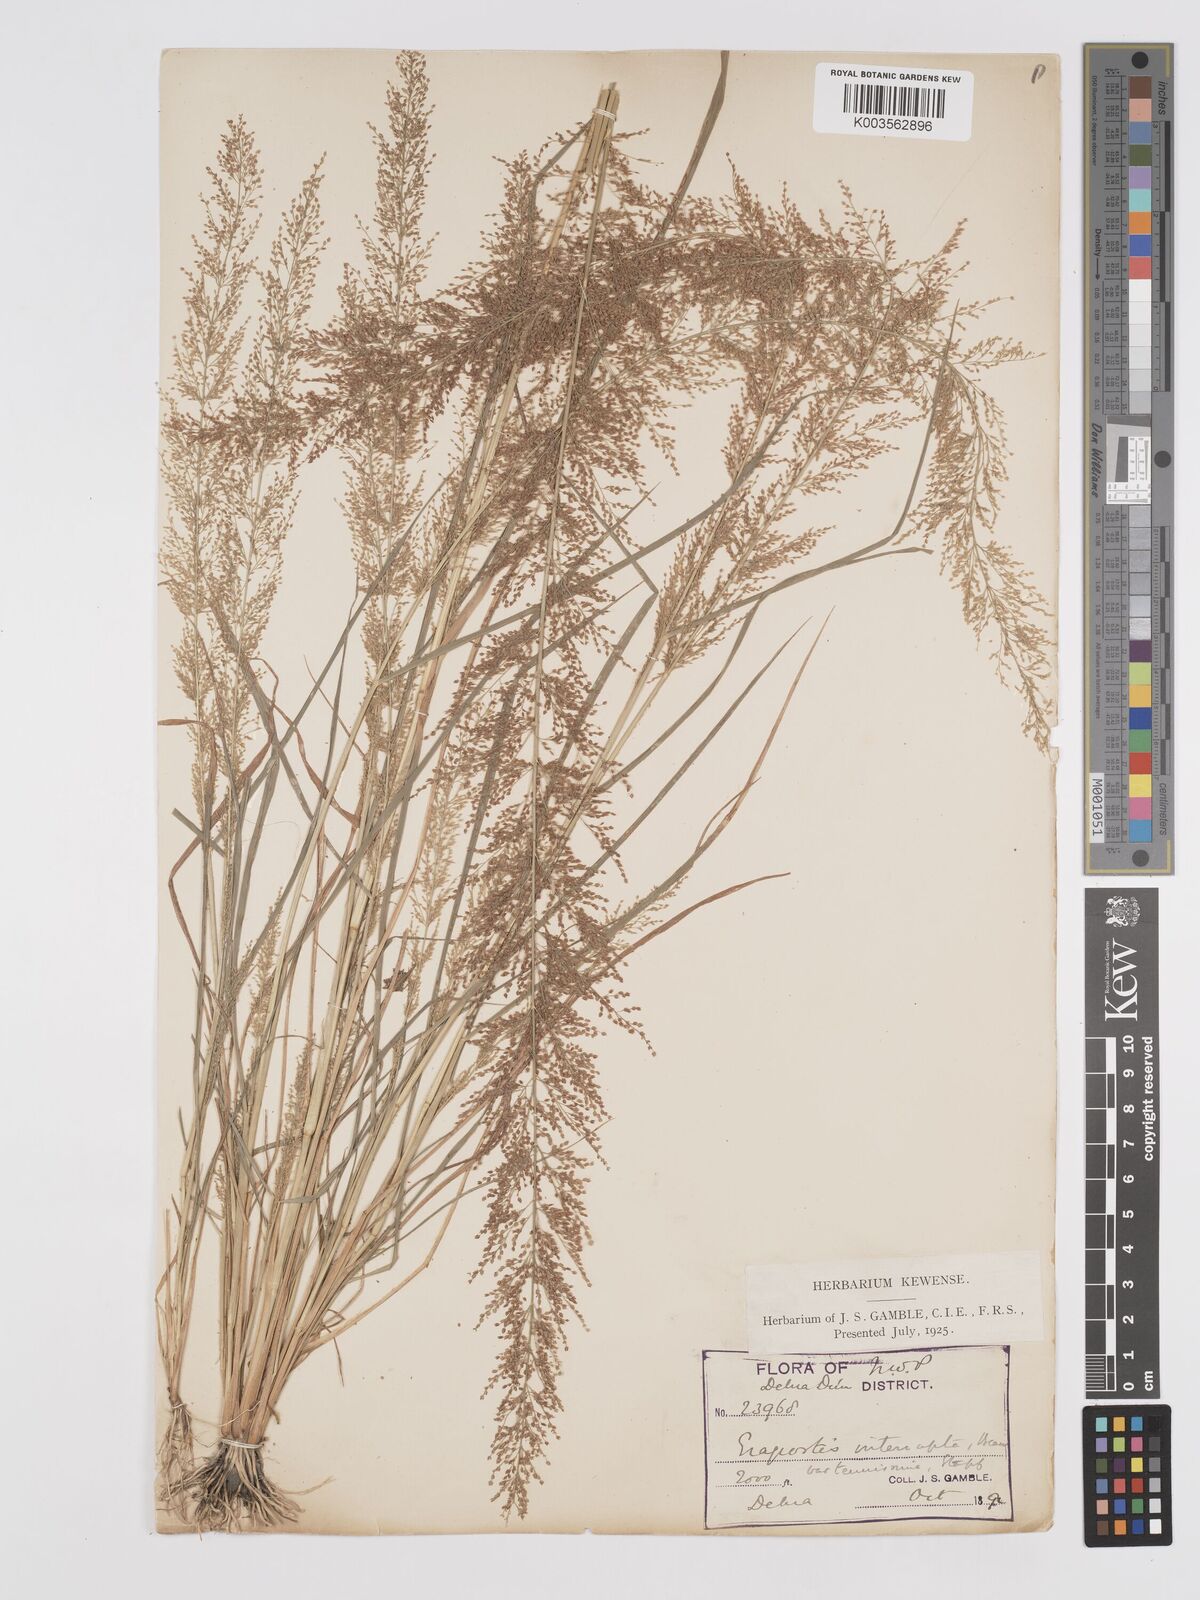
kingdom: Plantae
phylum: Tracheophyta
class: Liliopsida
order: Poales
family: Poaceae
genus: Eragrostis
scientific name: Eragrostis japonica
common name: Pond lovegrass
